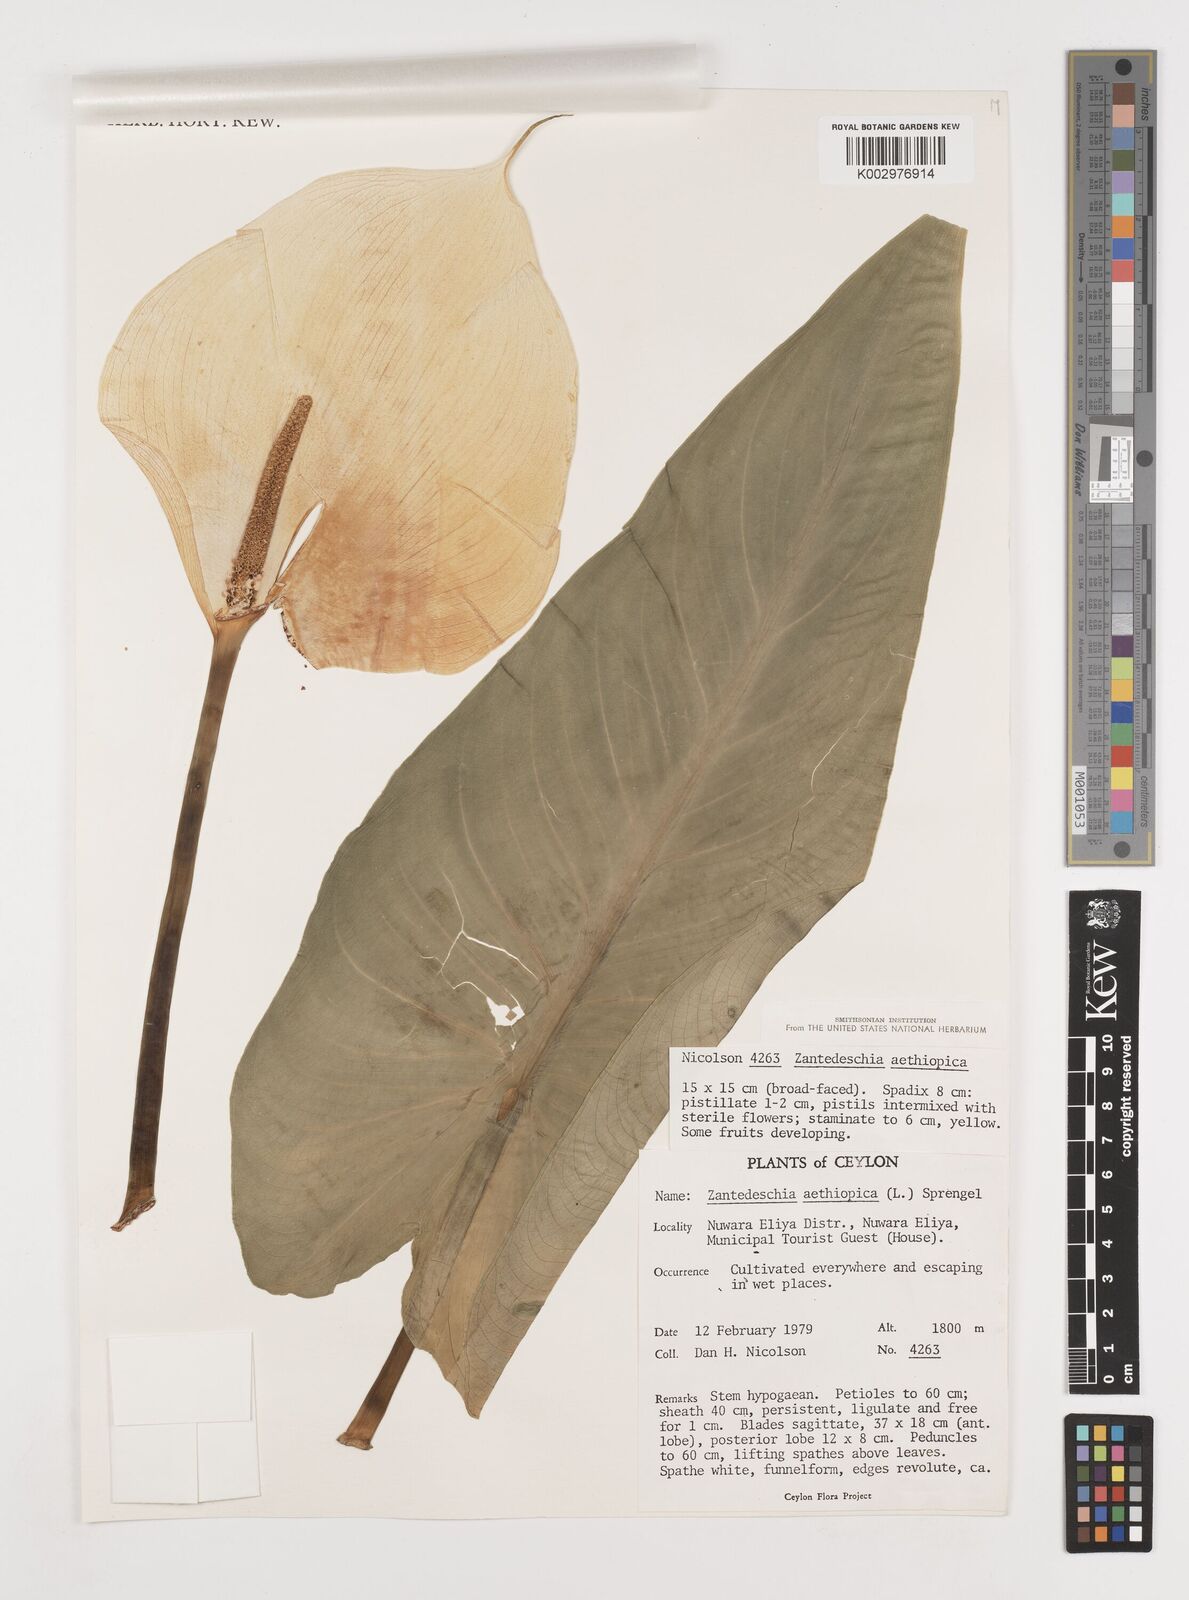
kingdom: Plantae
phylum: Tracheophyta
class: Liliopsida
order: Alismatales
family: Araceae
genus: Zantedeschia
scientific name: Zantedeschia aethiopica
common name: Altar-lily
